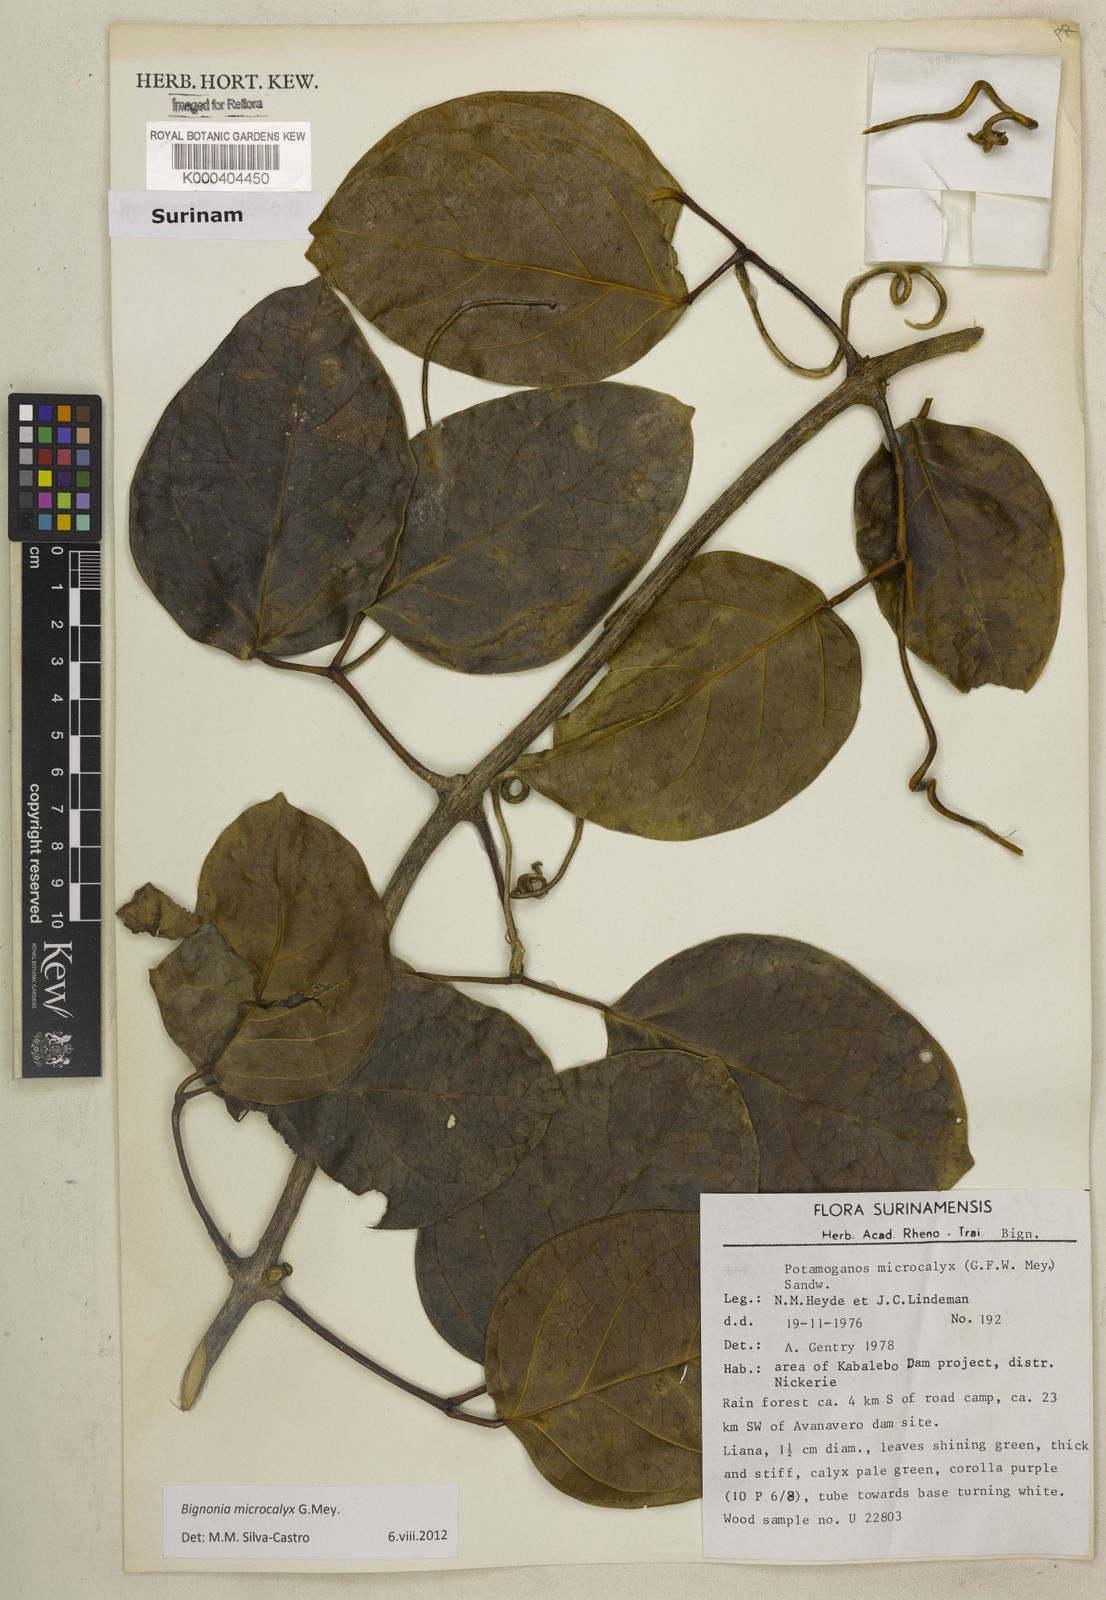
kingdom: Plantae
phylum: Tracheophyta
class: Magnoliopsida
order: Lamiales
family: Bignoniaceae
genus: Bignonia
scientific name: Bignonia microcalyx
